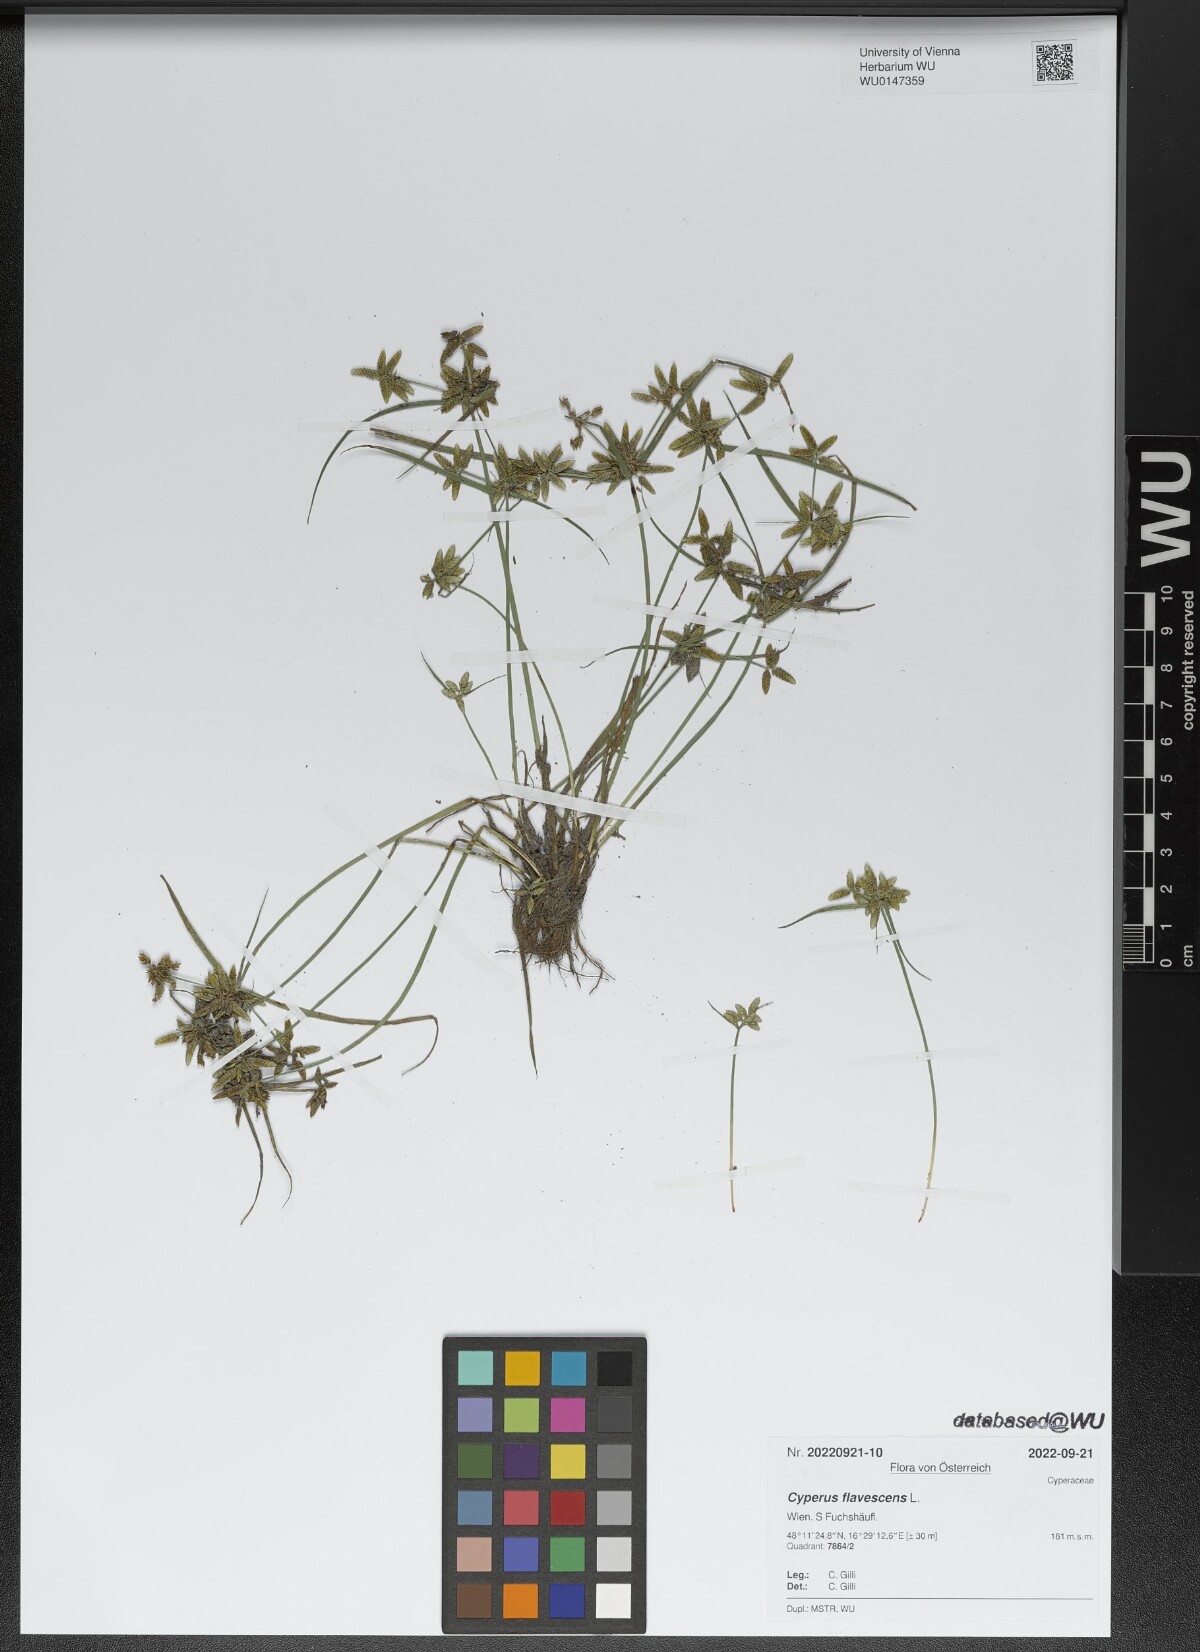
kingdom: Plantae
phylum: Tracheophyta
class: Liliopsida
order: Poales
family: Cyperaceae
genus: Cyperus
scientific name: Cyperus flavescens
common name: Yellow galingale
